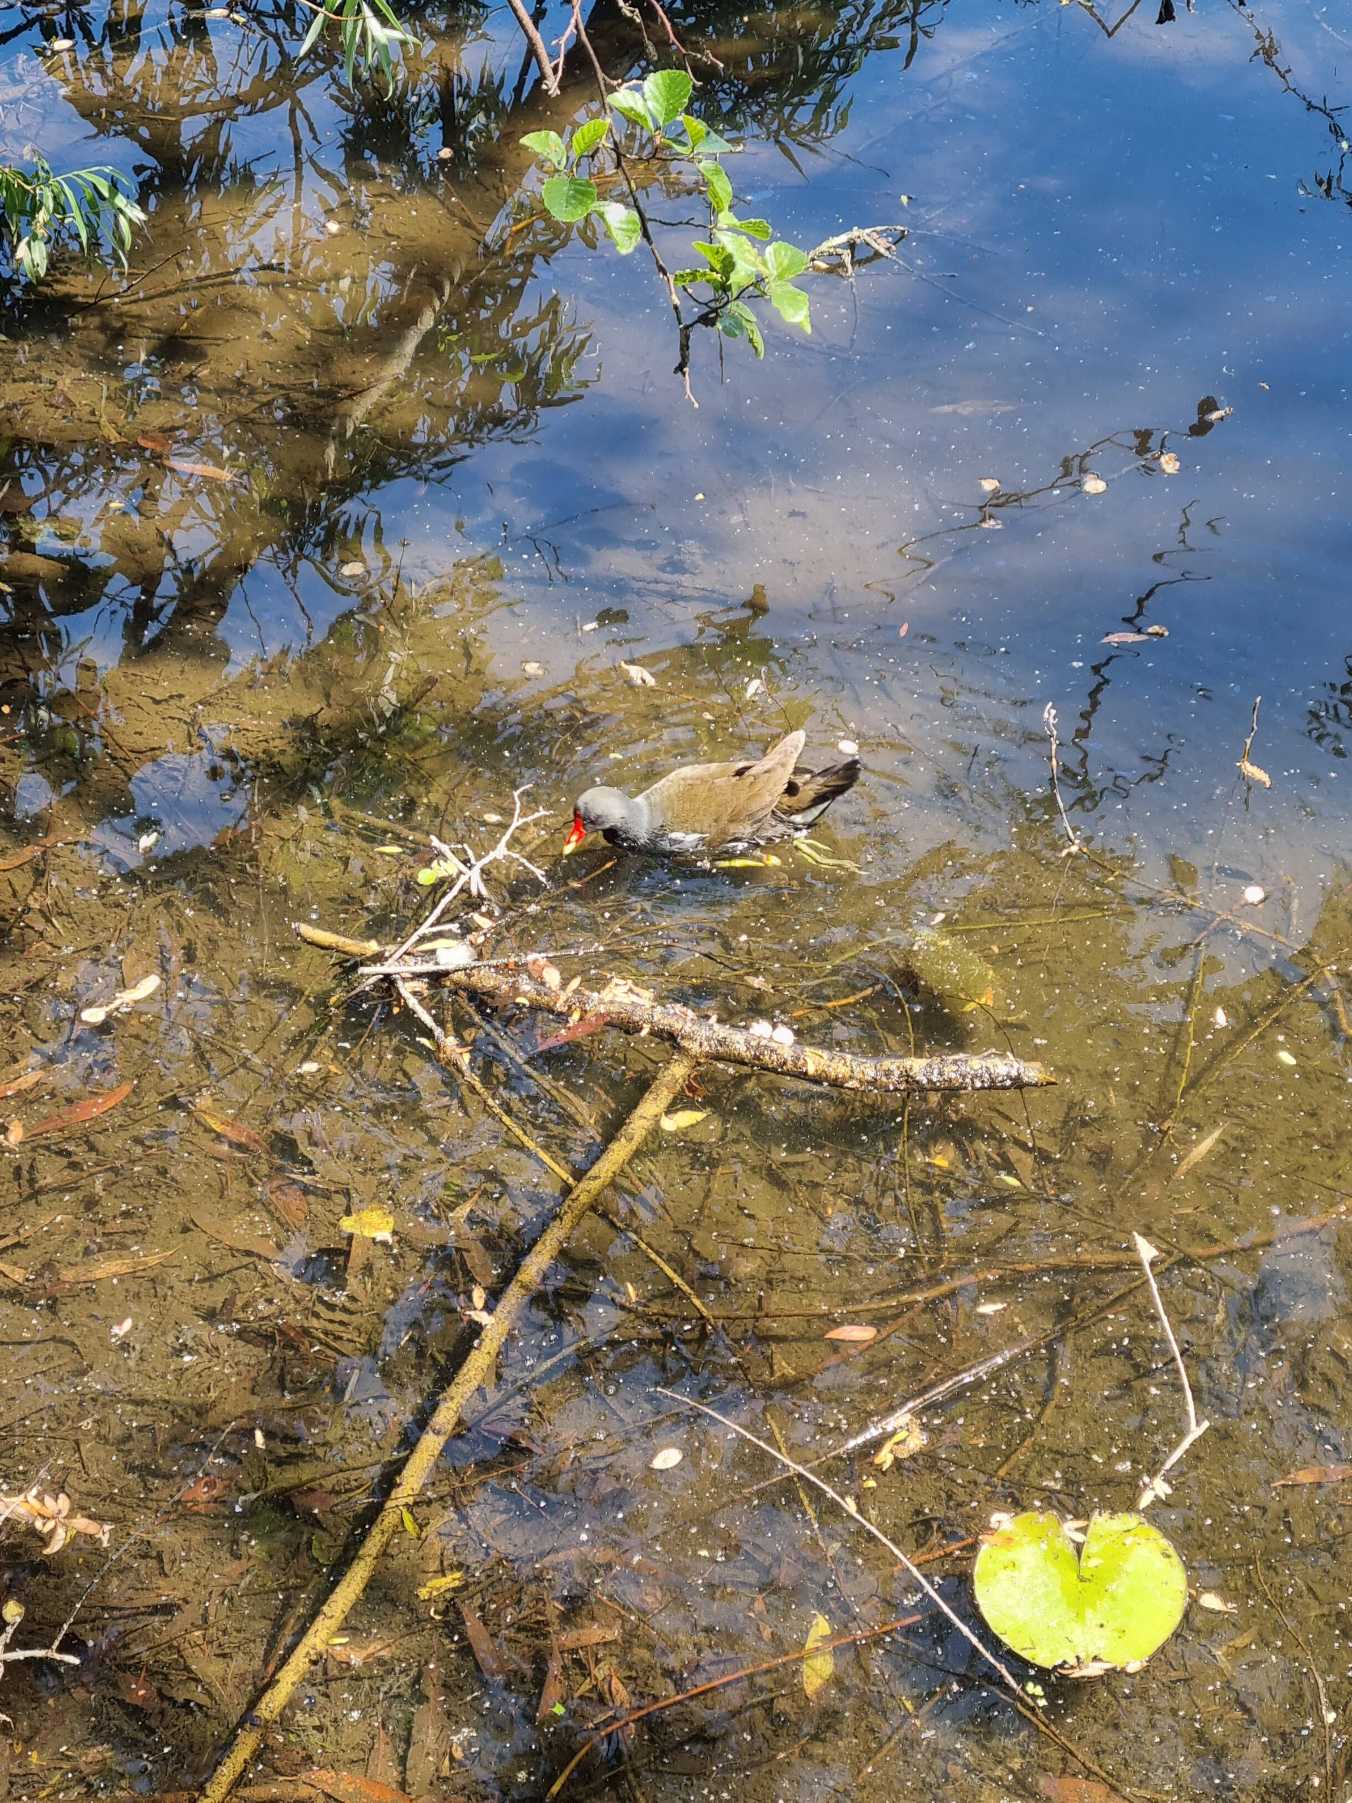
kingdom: Animalia
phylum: Chordata
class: Aves
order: Gruiformes
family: Rallidae
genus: Gallinula
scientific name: Gallinula chloropus
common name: Grønbenet rørhøne
